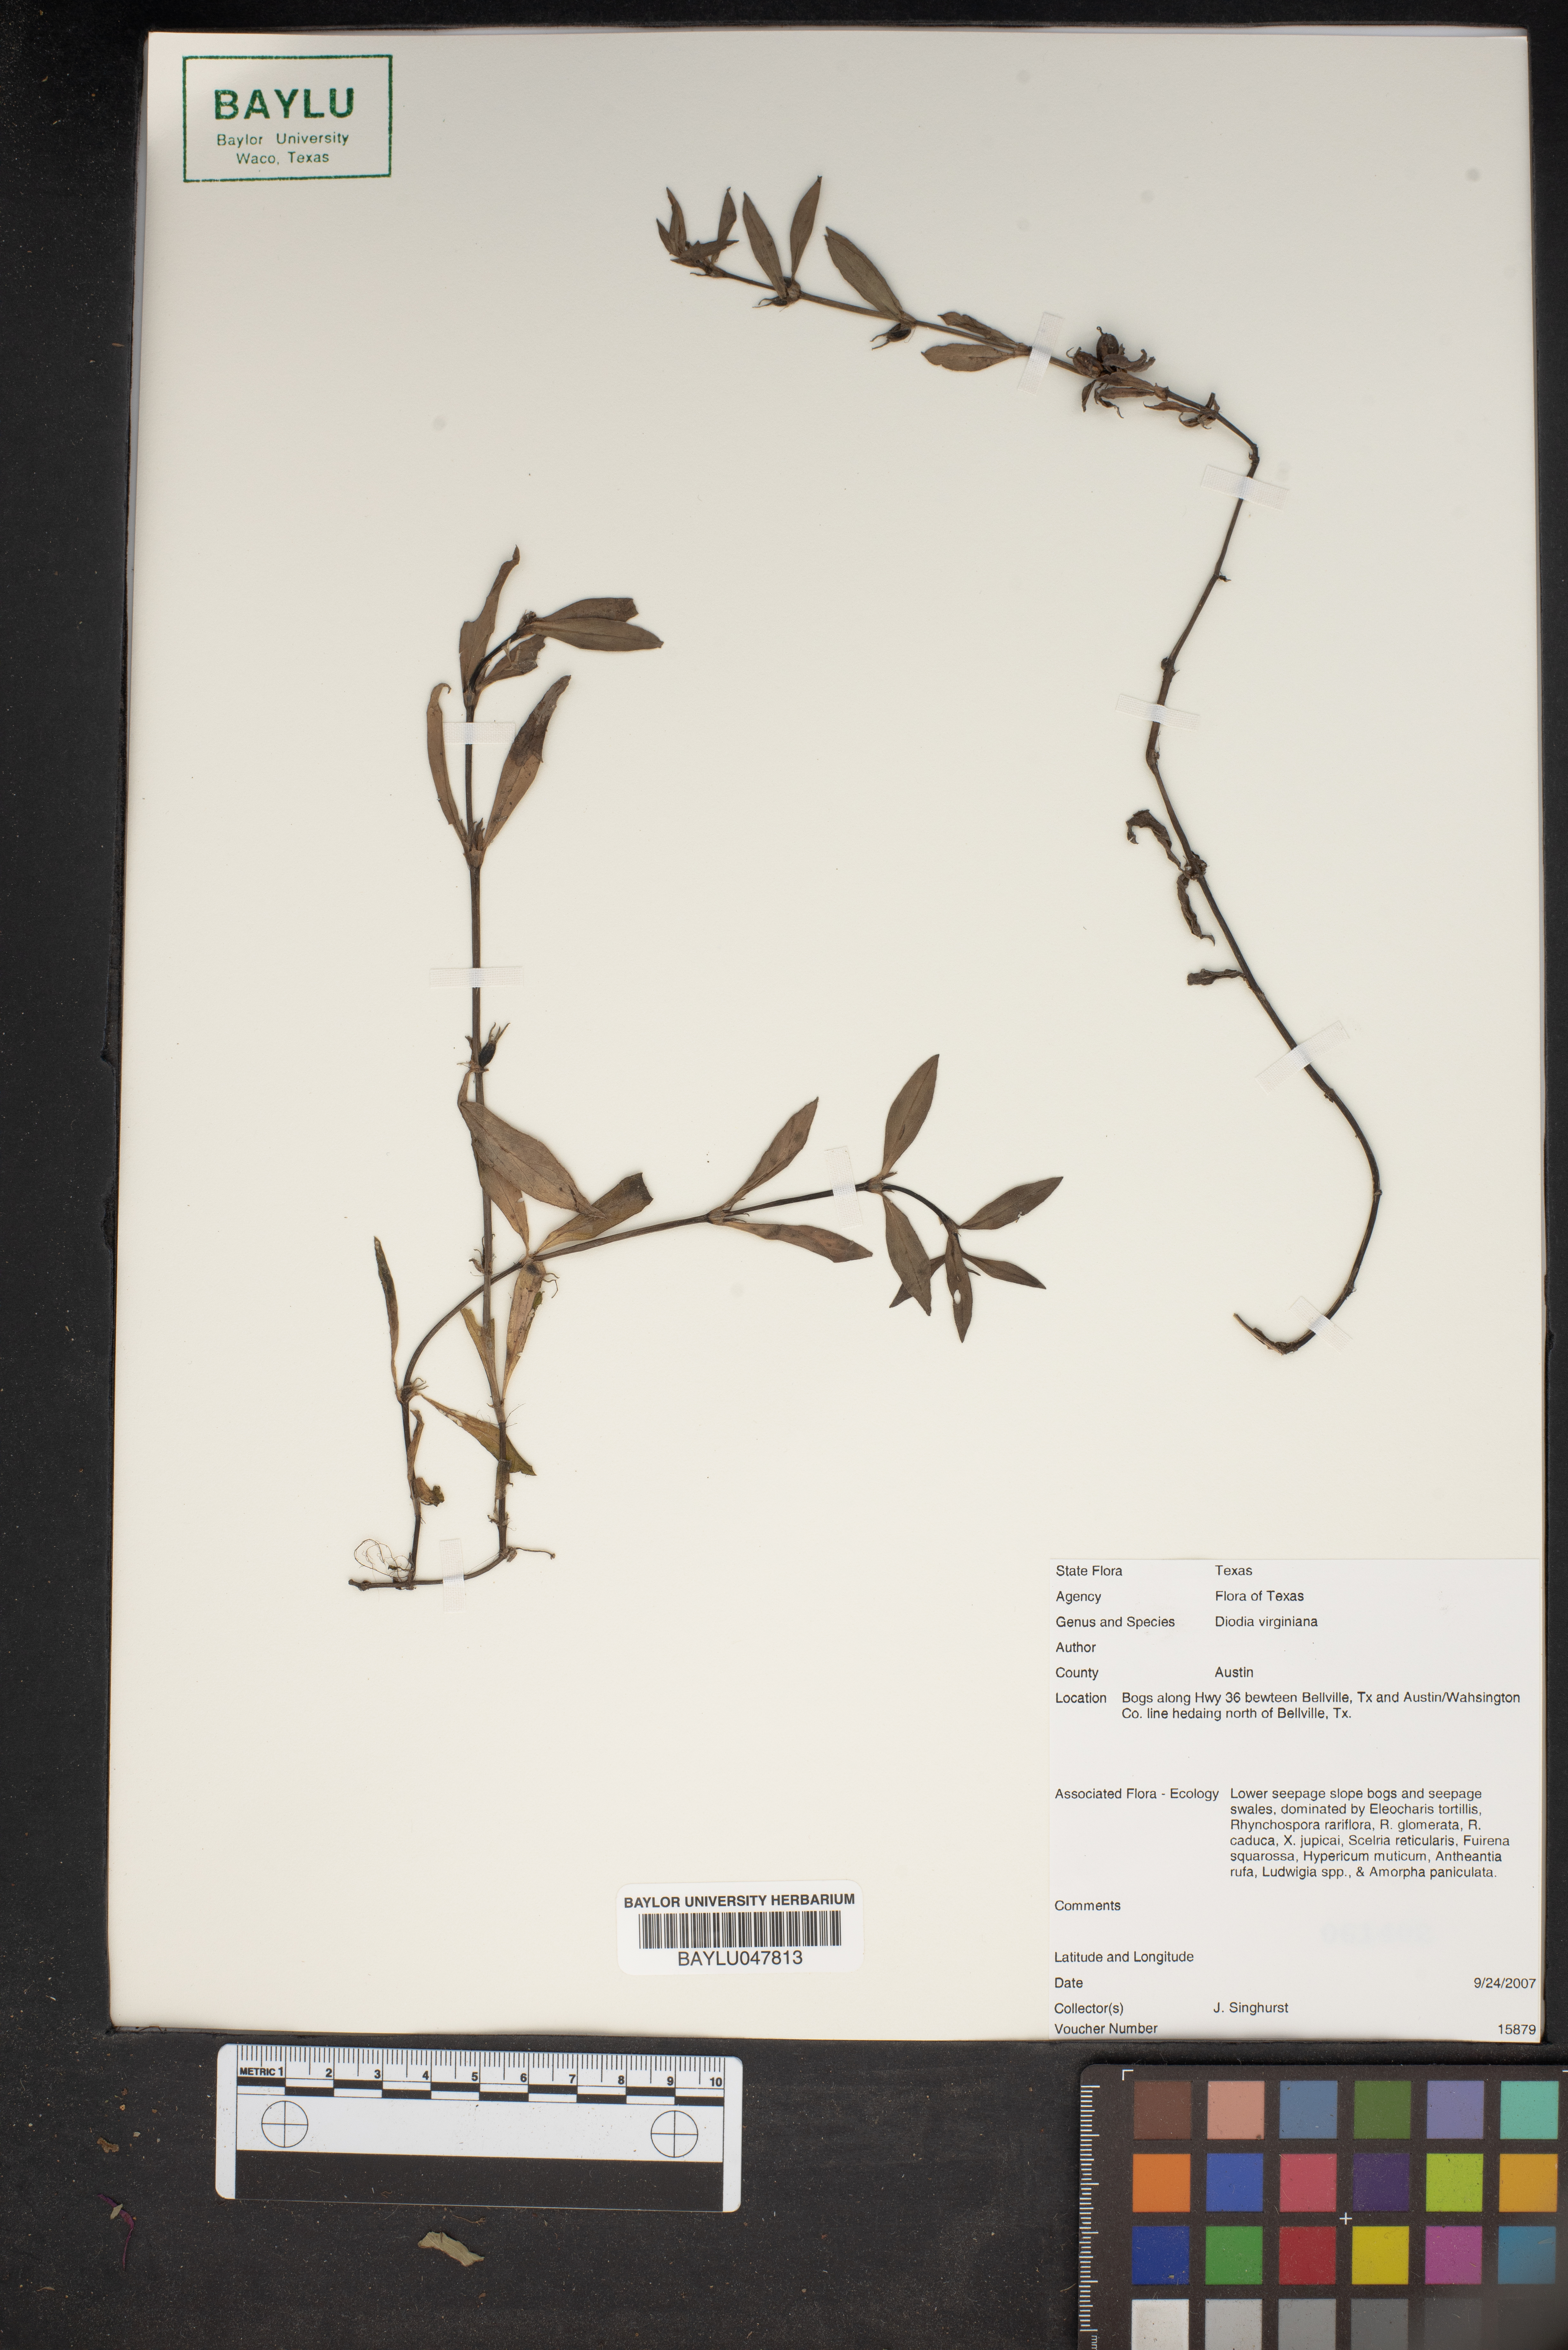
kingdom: Plantae
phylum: Tracheophyta
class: Magnoliopsida
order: Gentianales
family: Rubiaceae
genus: Diodia
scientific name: Diodia virginiana
